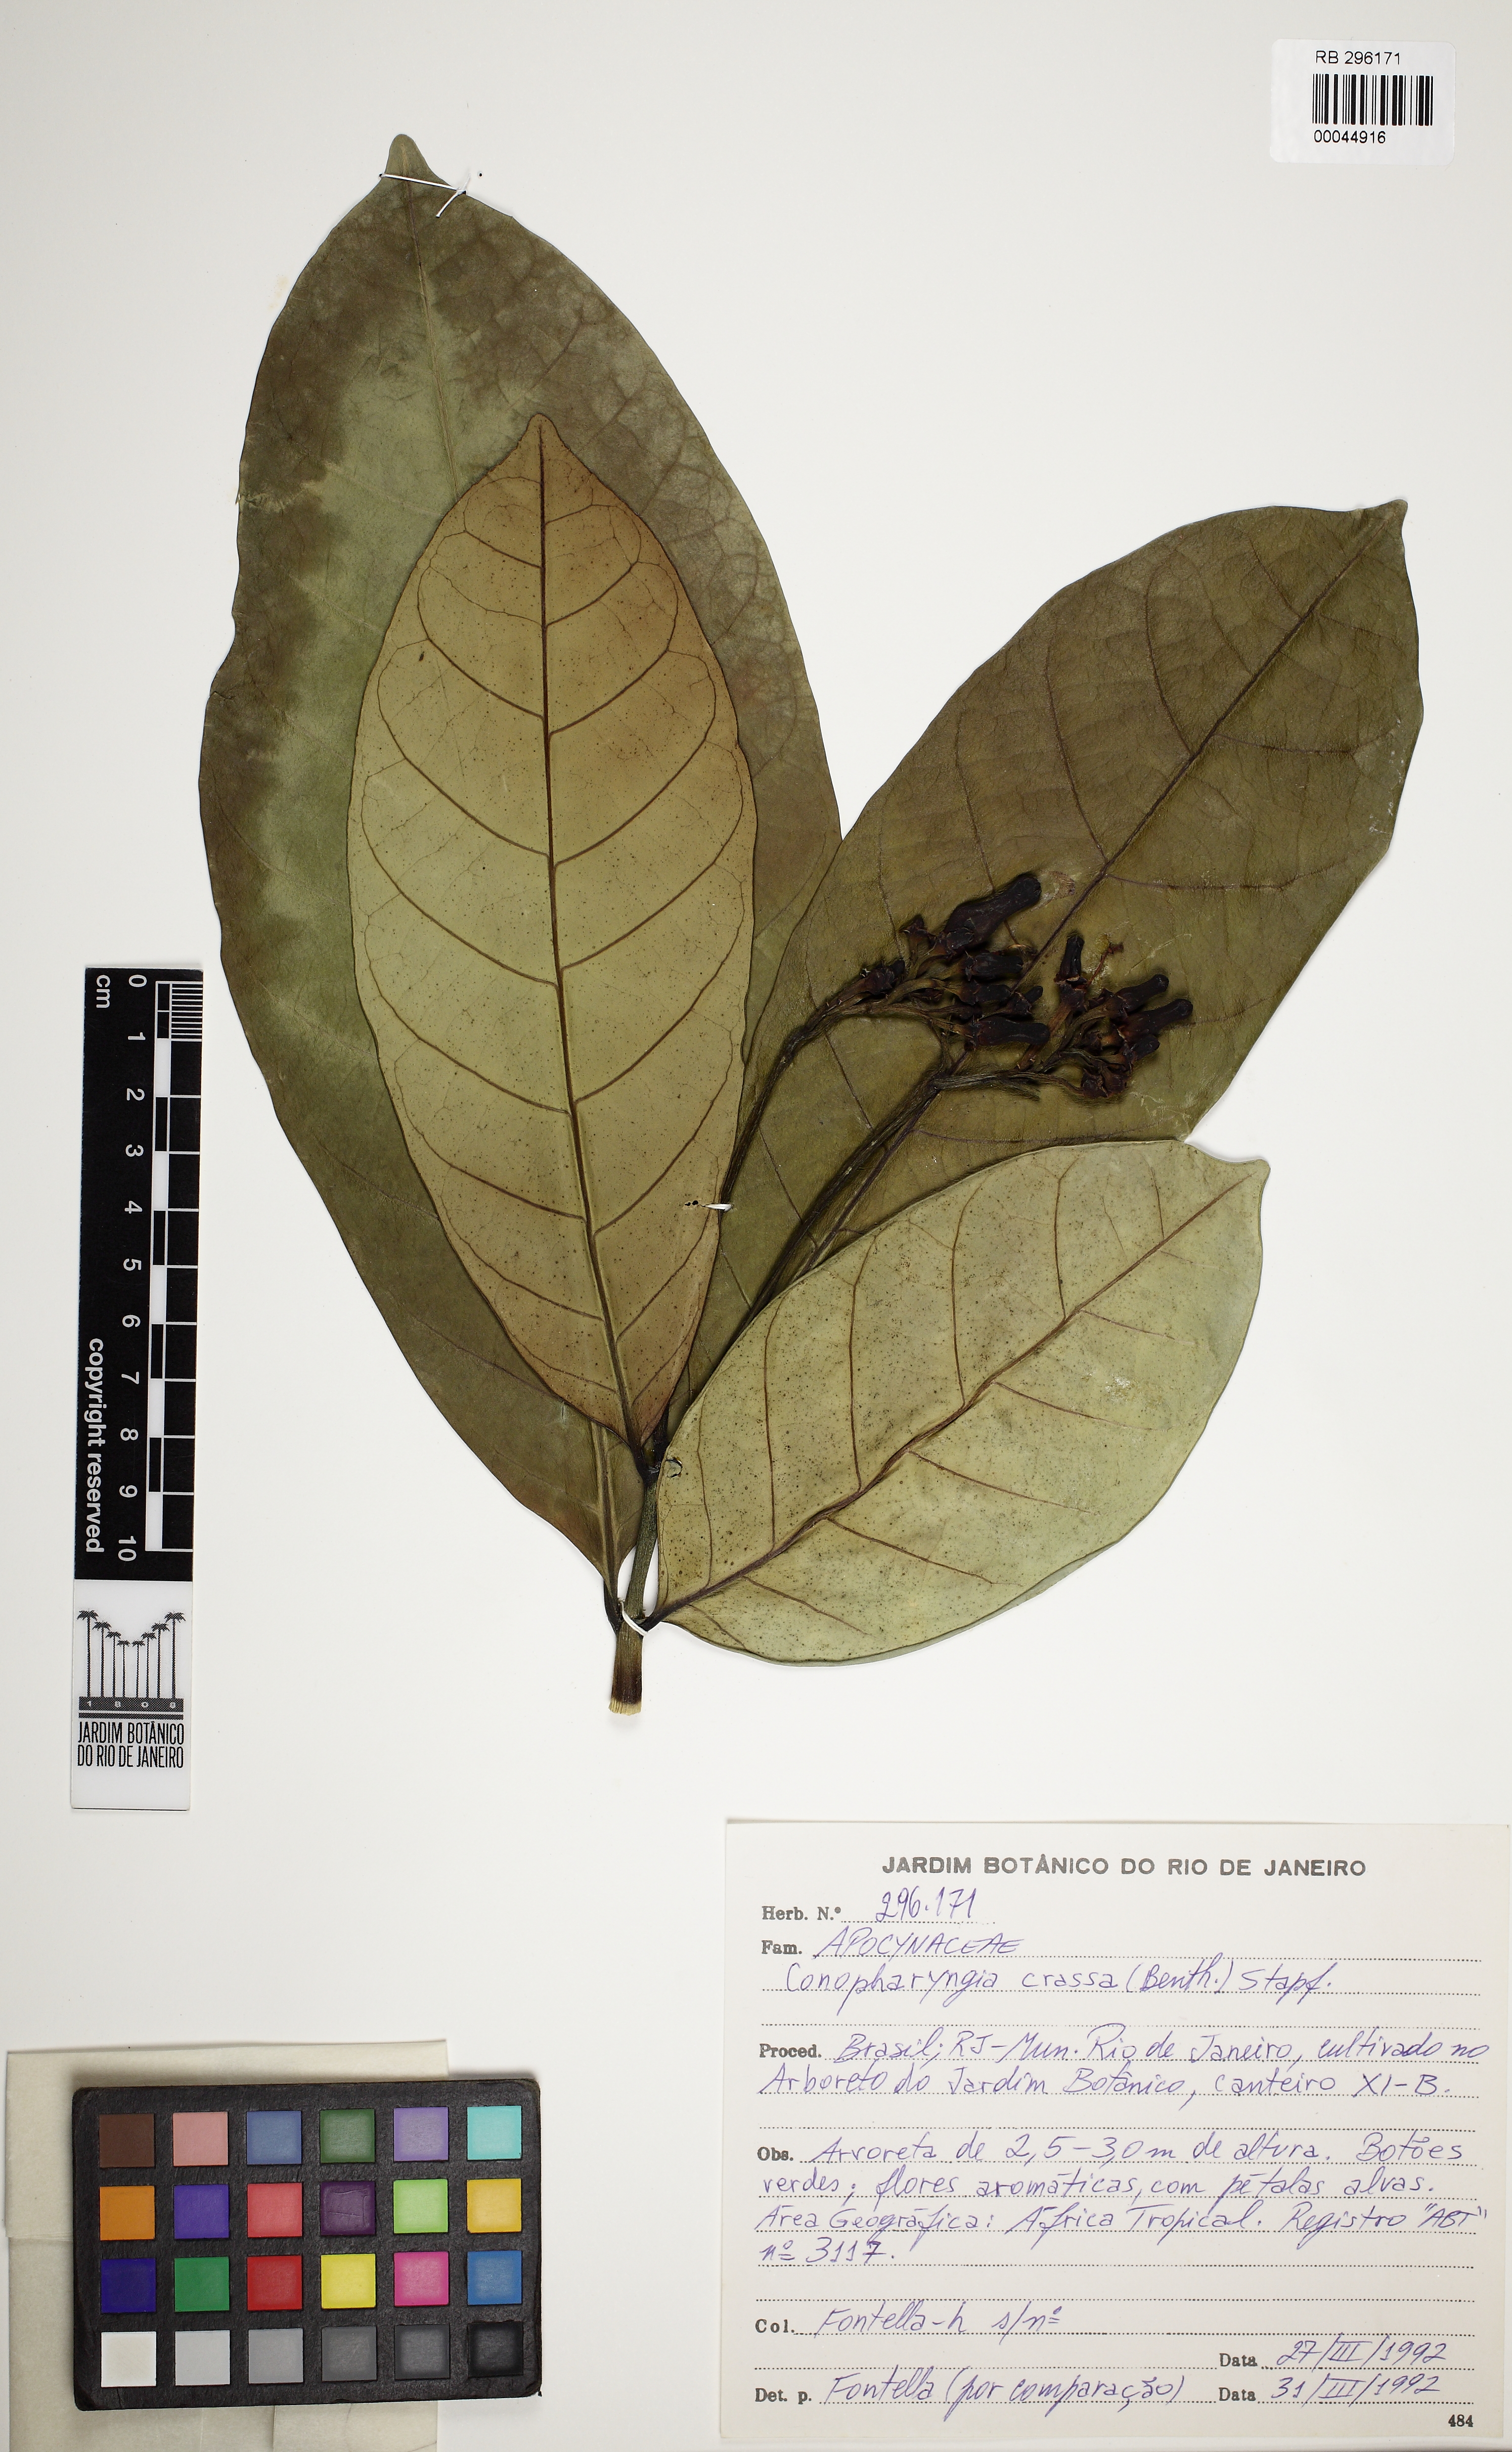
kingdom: Plantae
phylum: Tracheophyta
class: Magnoliopsida
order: Gentianales
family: Apocynaceae
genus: Tabernaemontana
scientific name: Tabernaemontana crassa
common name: Adam's-apple-flower
